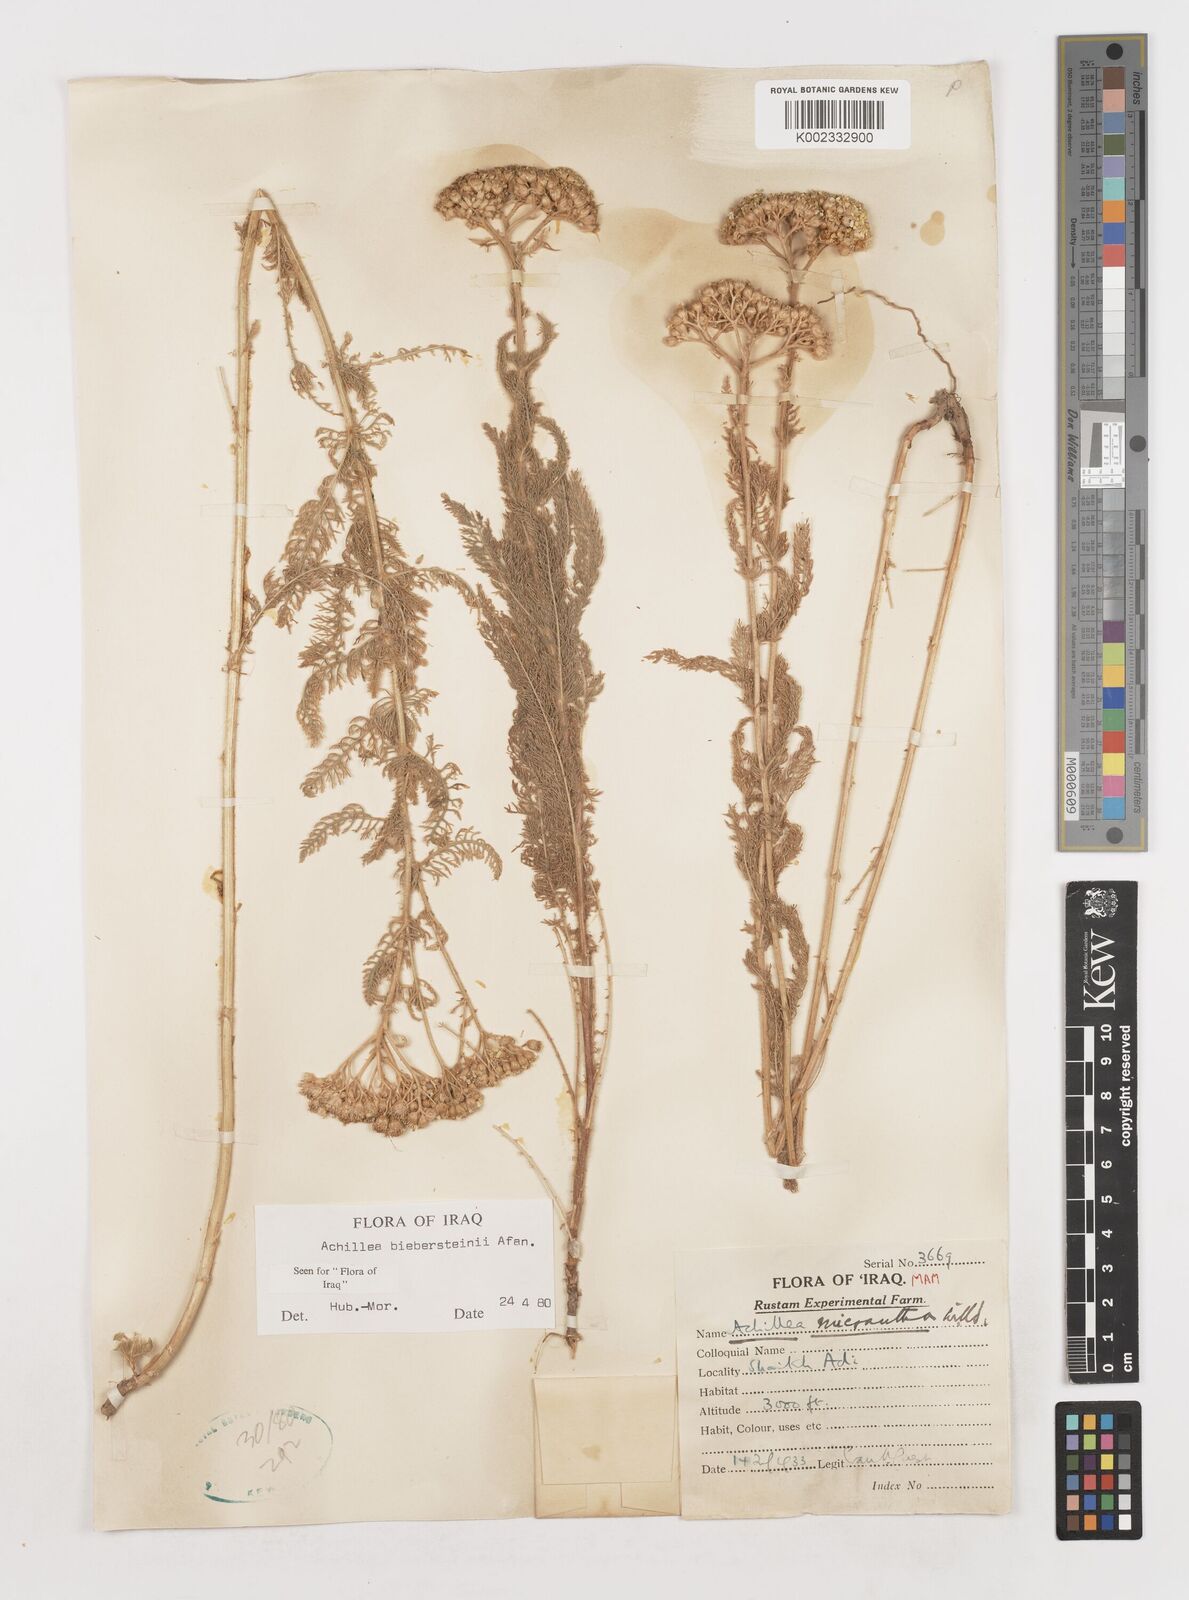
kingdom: Plantae
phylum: Tracheophyta
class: Magnoliopsida
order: Asterales
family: Asteraceae
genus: Achillea
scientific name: Achillea arabica
